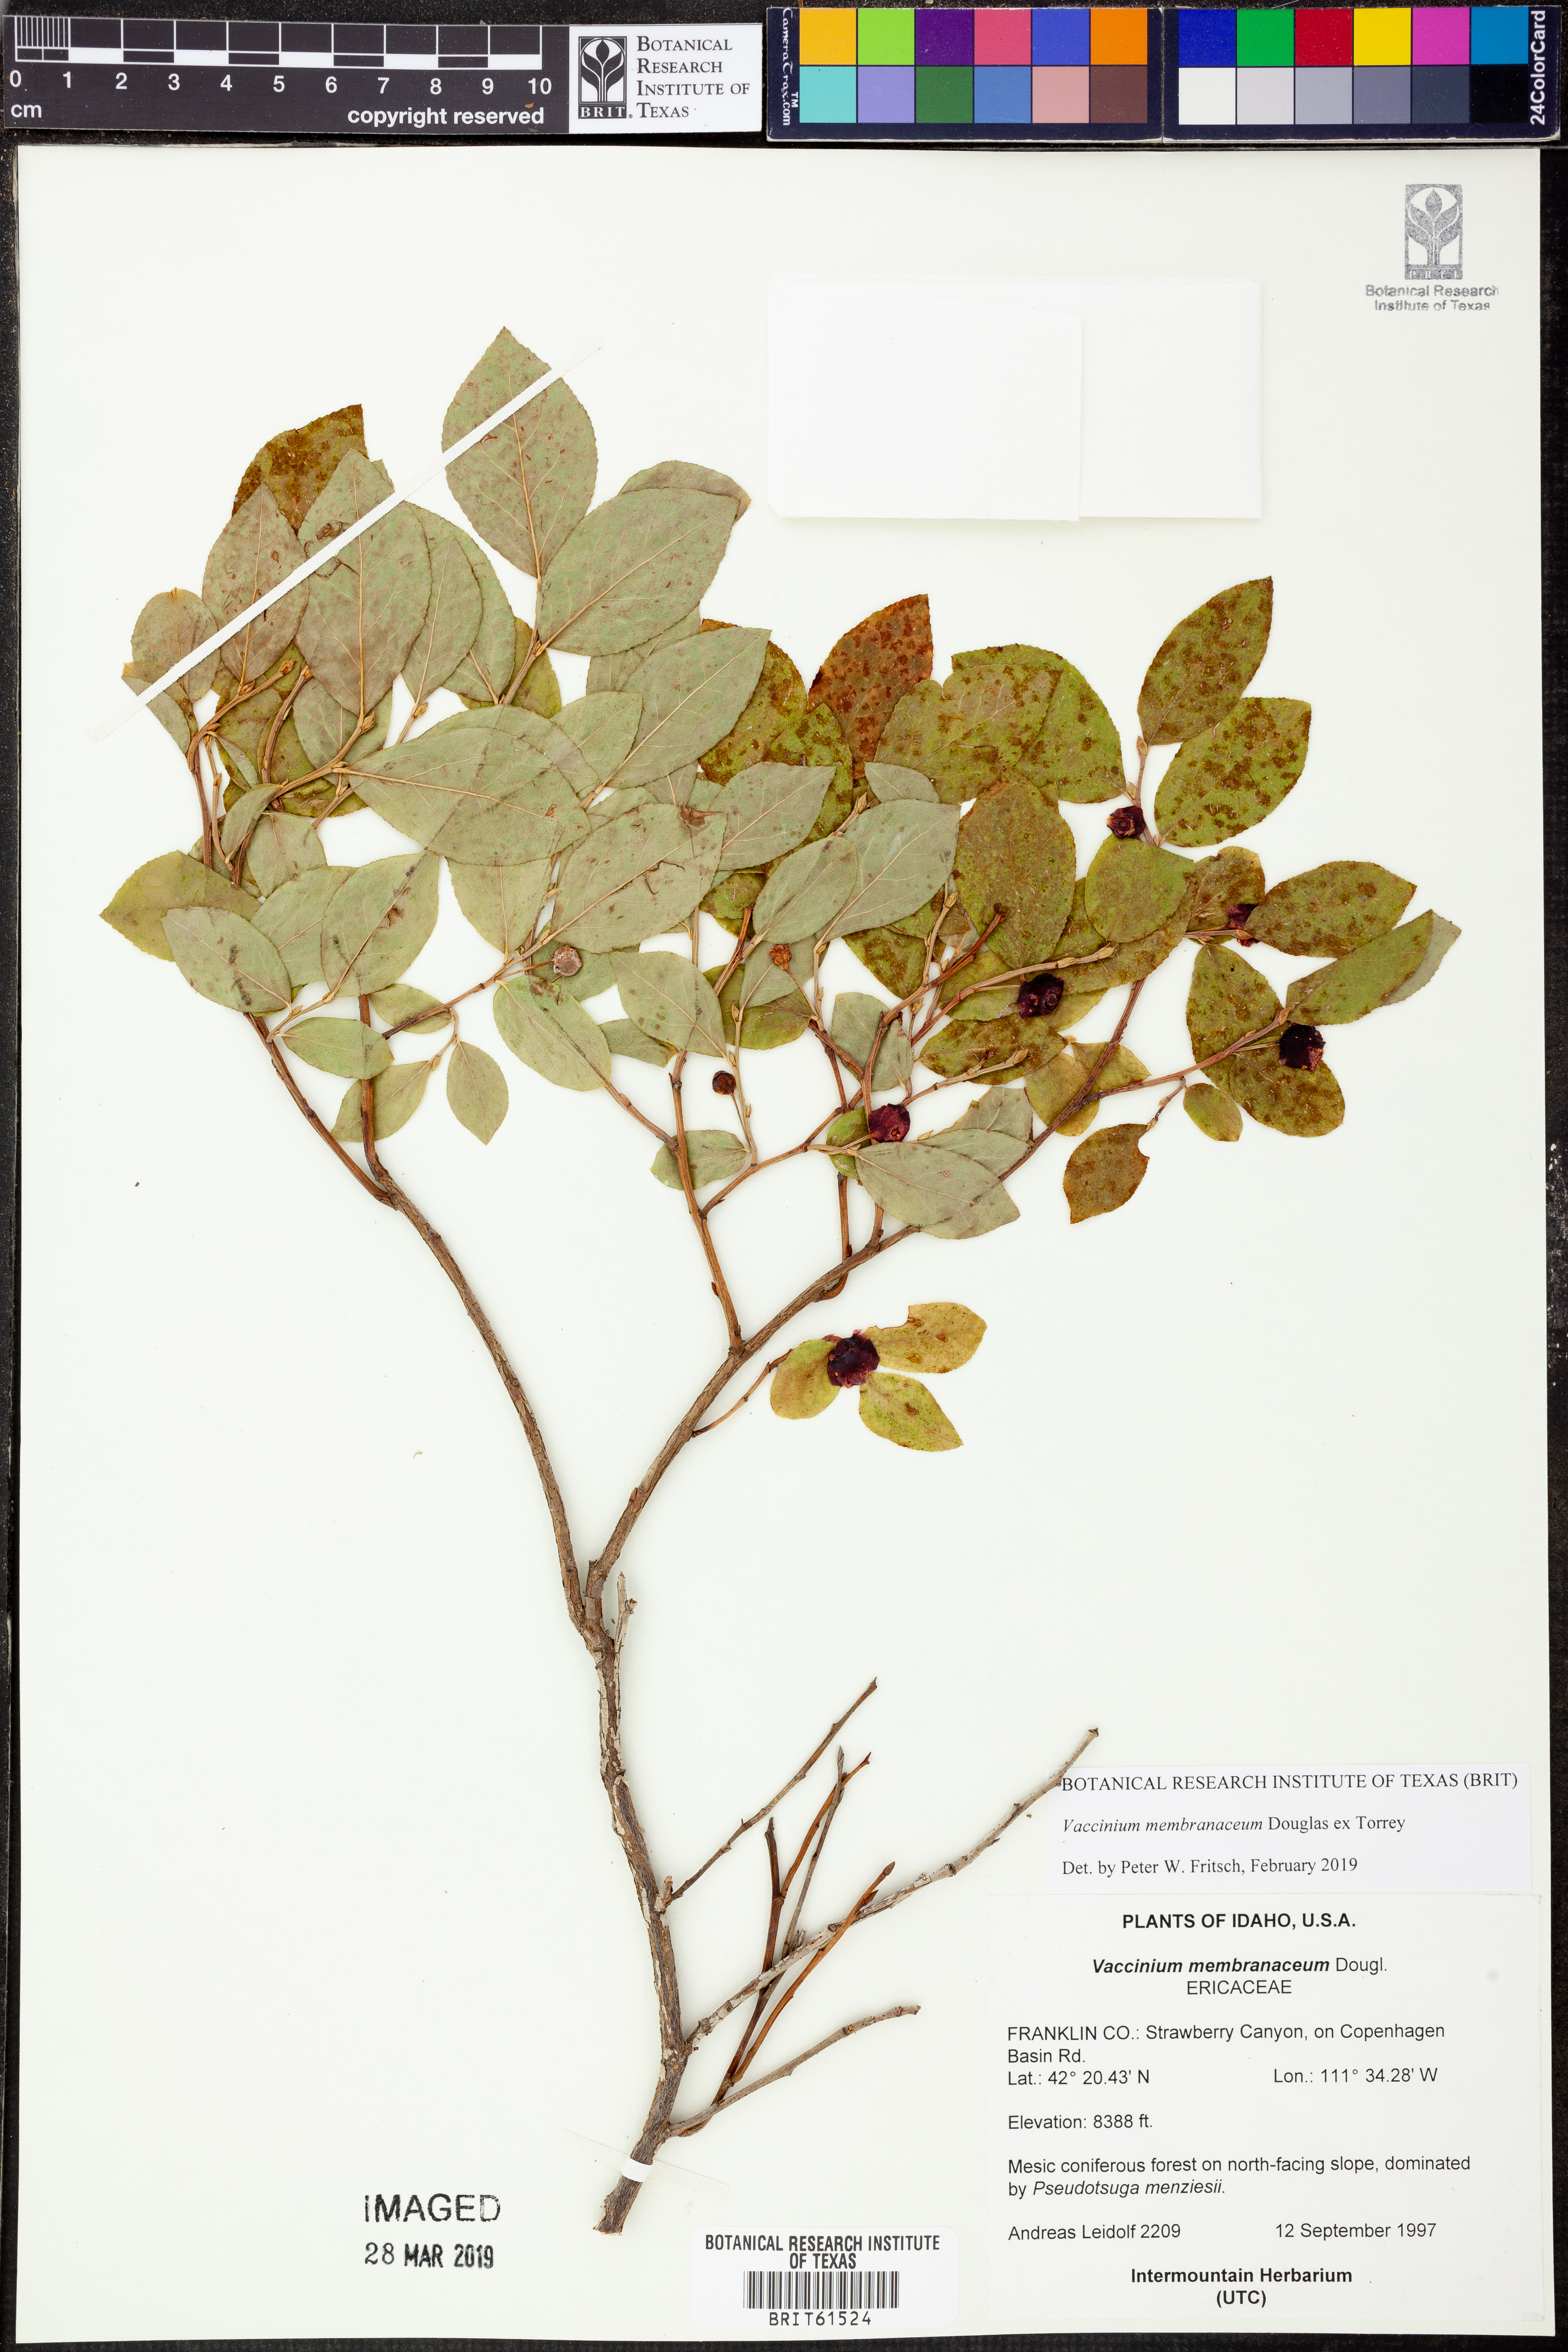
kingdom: Plantae
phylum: Tracheophyta
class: Magnoliopsida
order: Ericales
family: Ericaceae
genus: Vaccinium
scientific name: Vaccinium membranaceum
